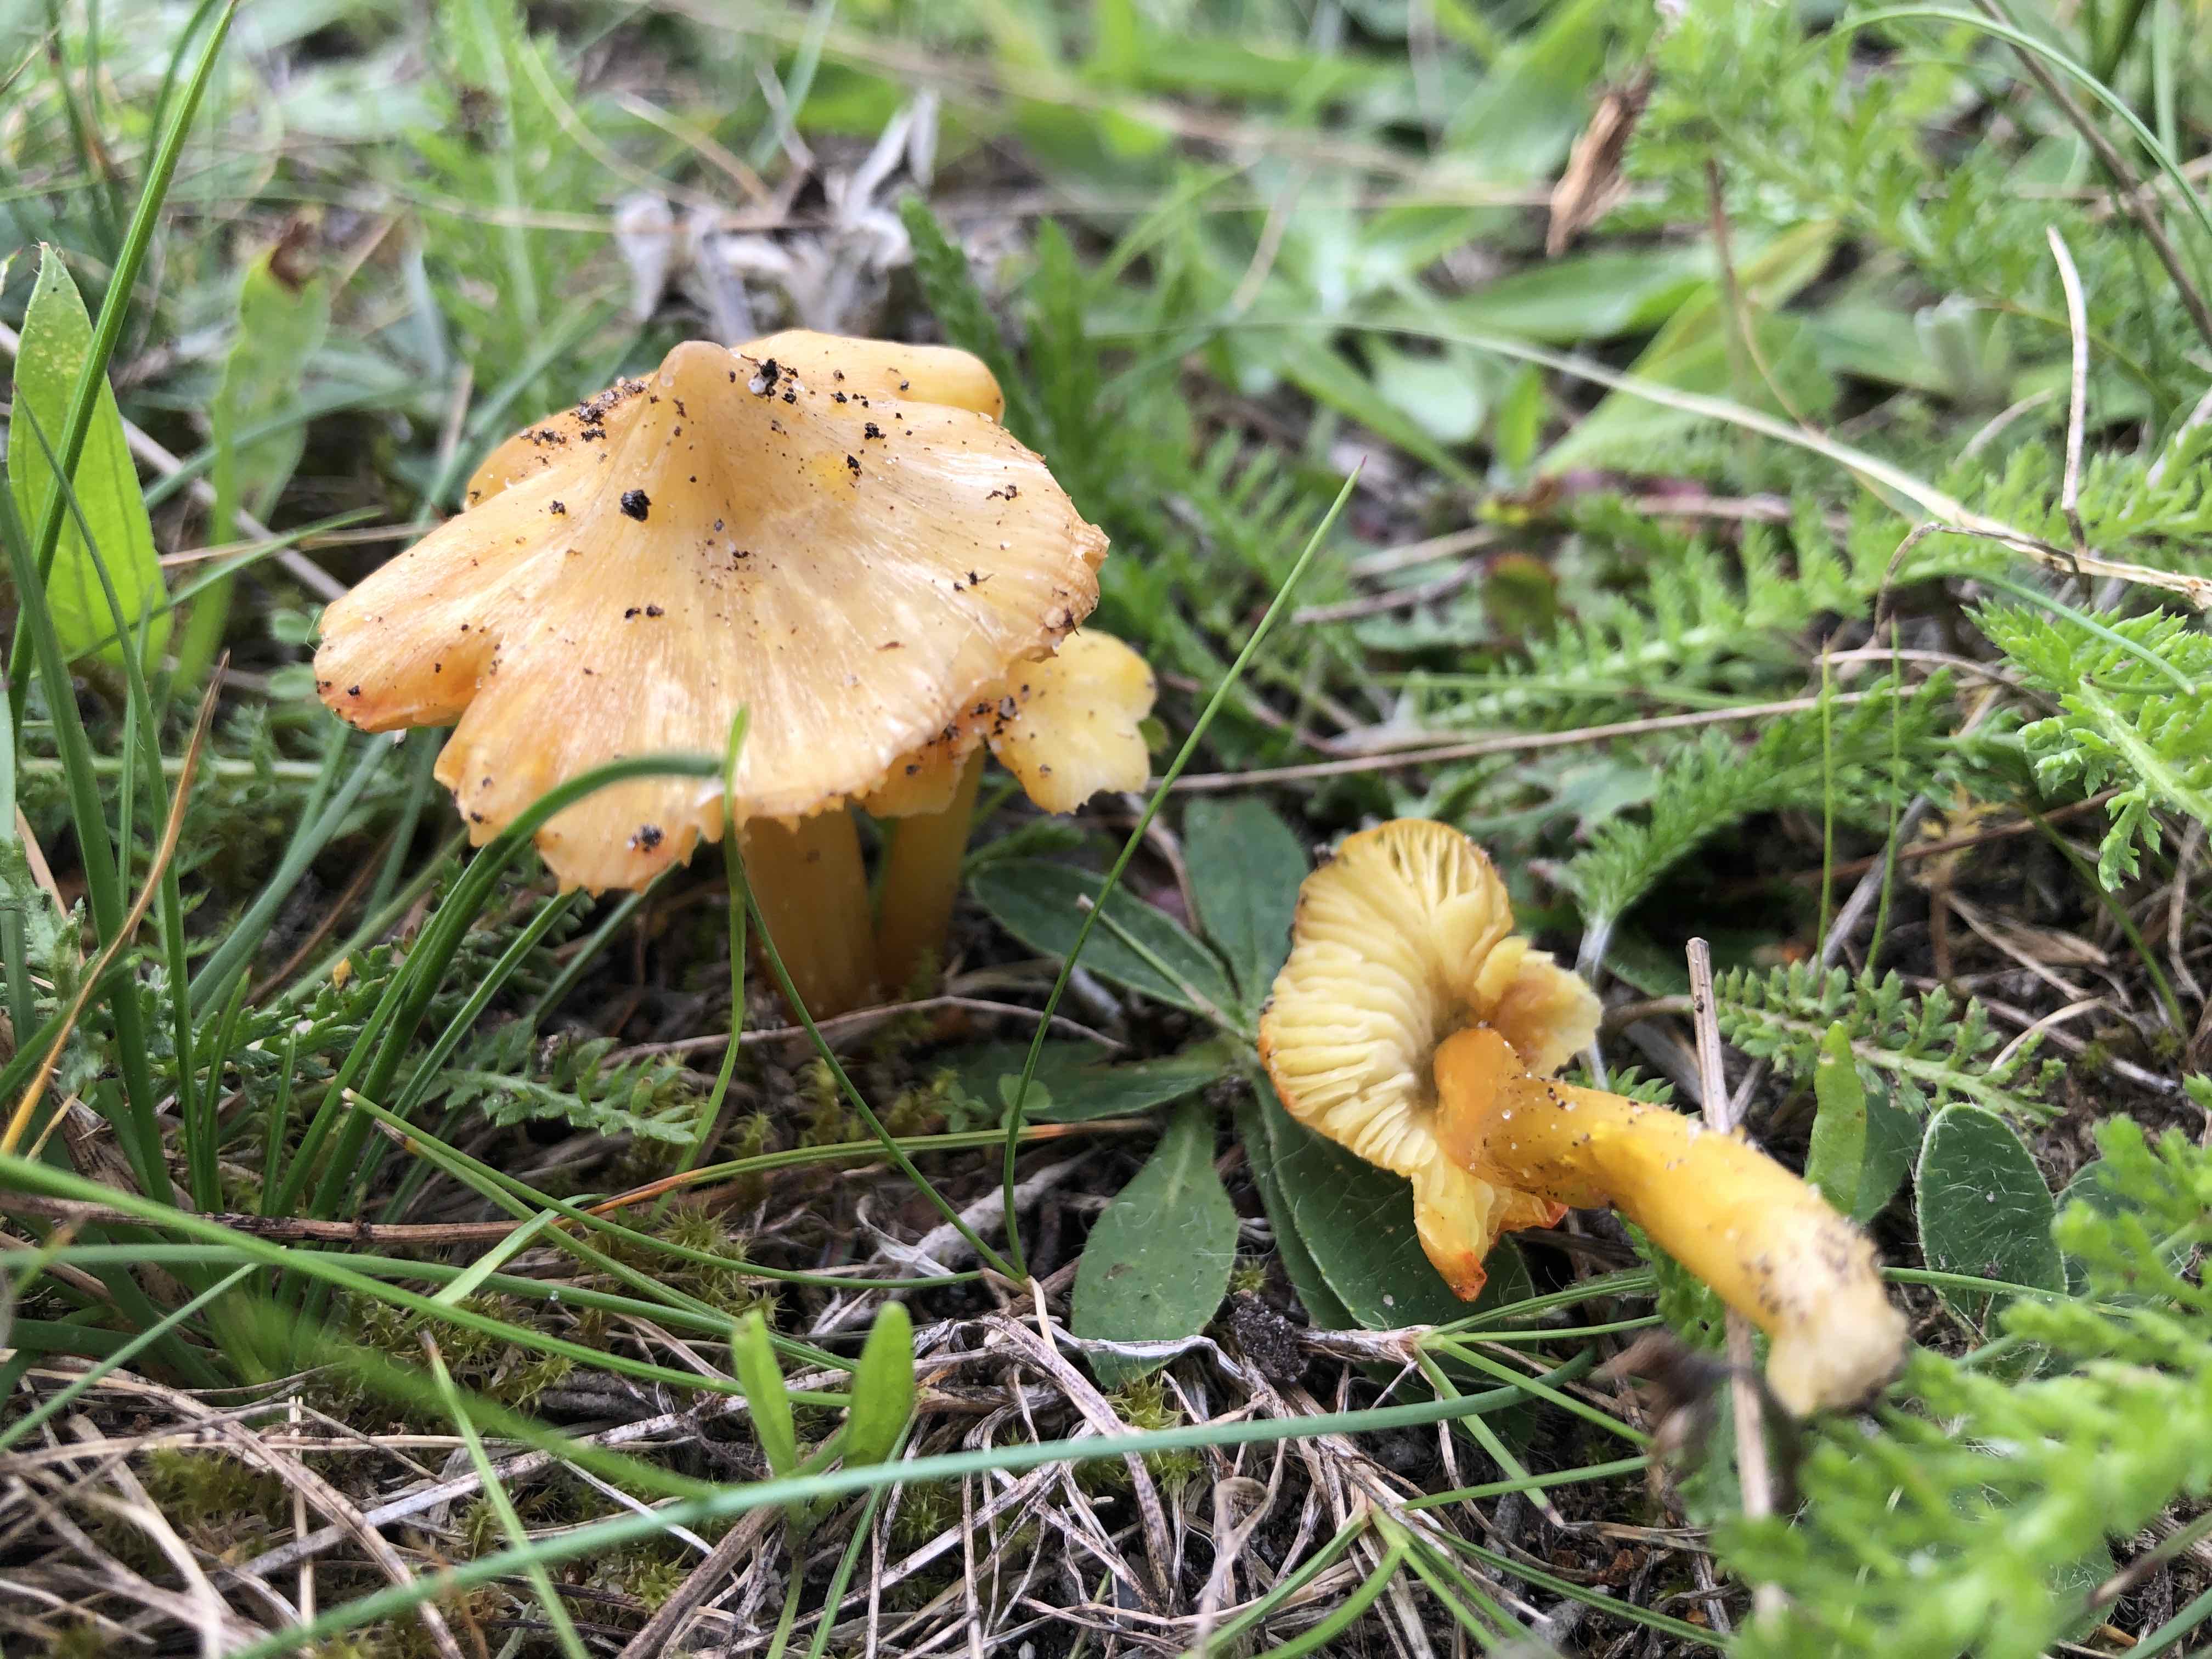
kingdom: Fungi
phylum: Basidiomycota
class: Agaricomycetes
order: Agaricales
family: Hygrophoraceae
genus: Hygrocybe
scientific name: Hygrocybe acutoconica
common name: spidspuklet vokshat
